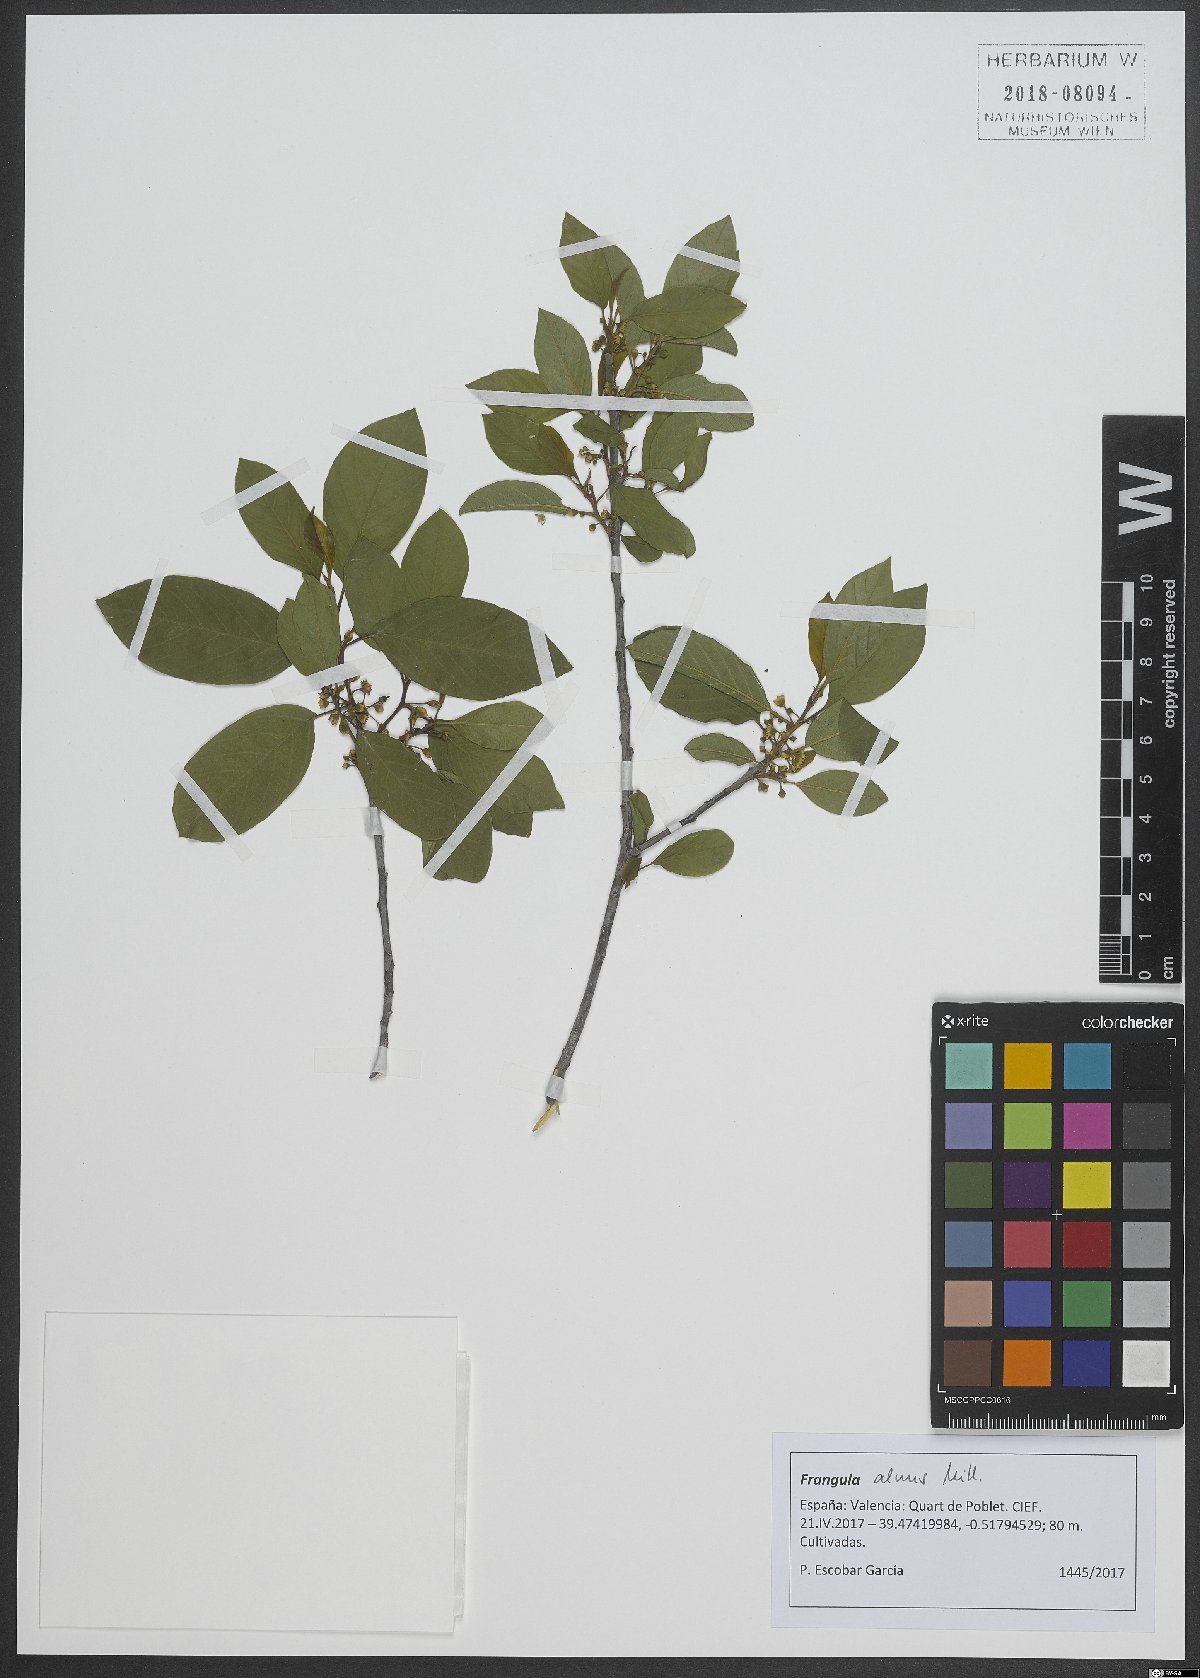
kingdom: Plantae
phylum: Tracheophyta
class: Magnoliopsida
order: Rosales
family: Rhamnaceae
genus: Frangula
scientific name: Frangula alnus
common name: Alder buckthorn
